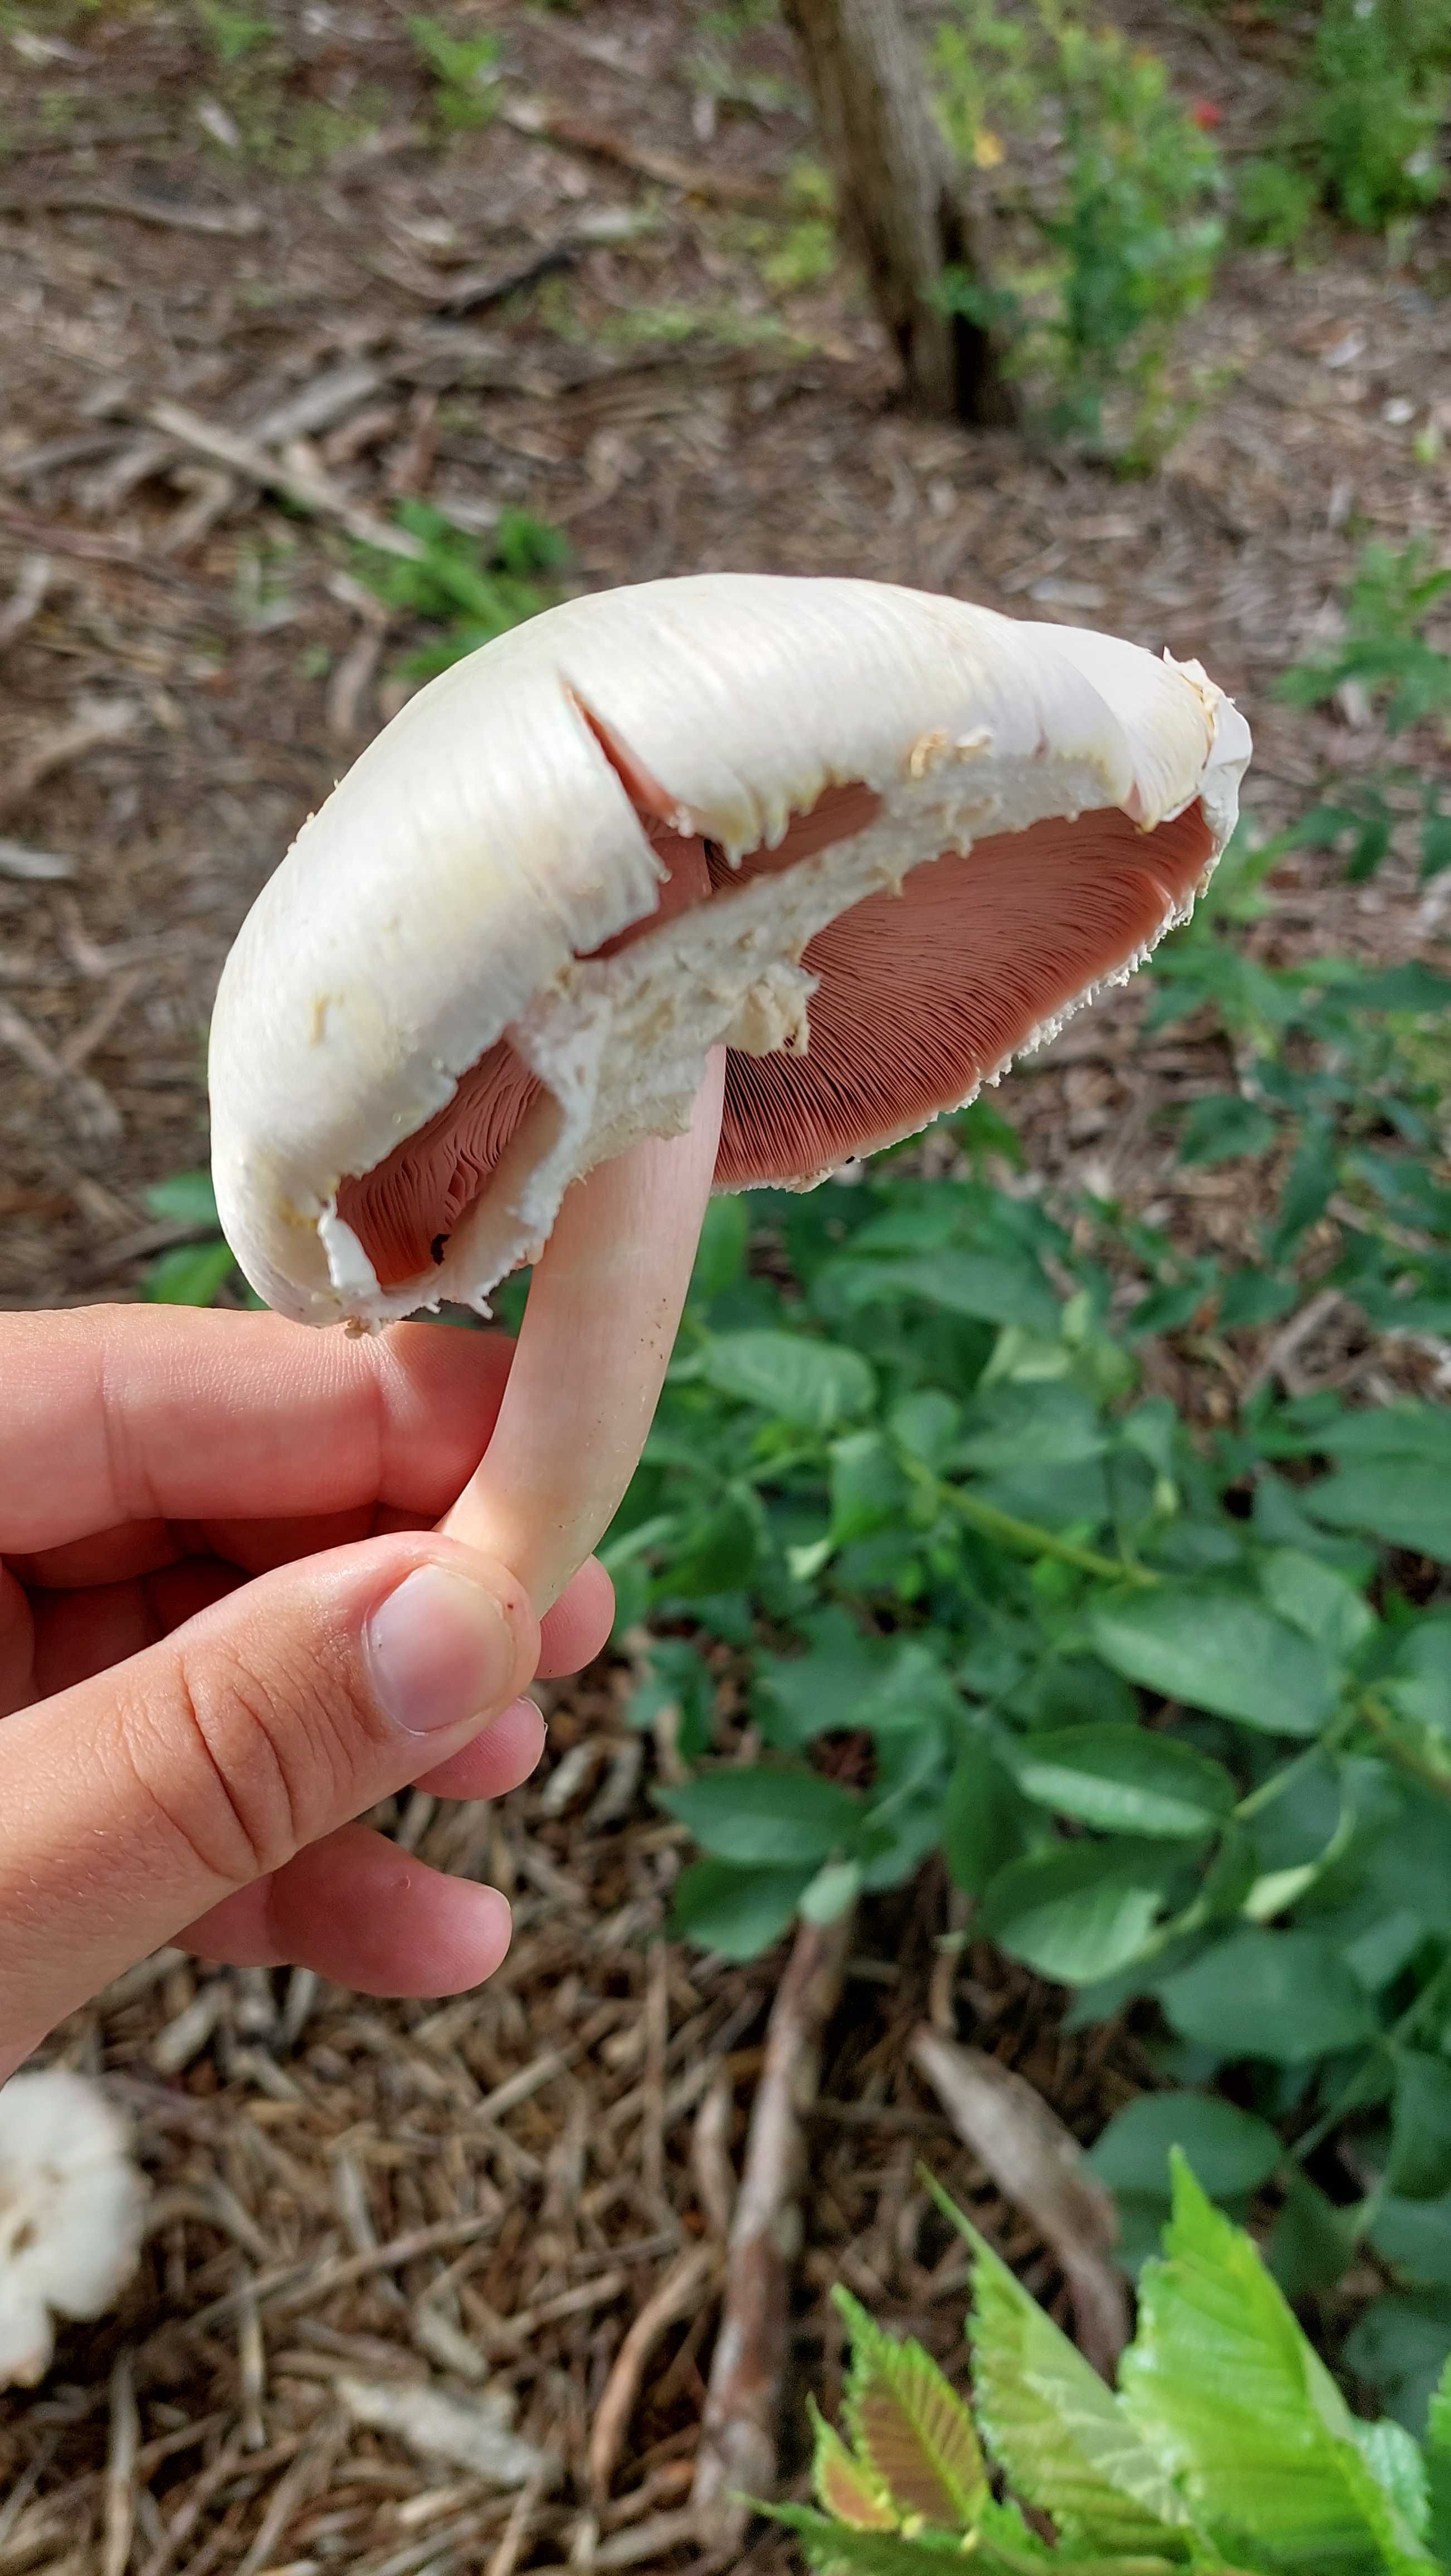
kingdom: Fungi
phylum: Basidiomycota
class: Agaricomycetes
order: Agaricales
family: Agaricaceae
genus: Agaricus
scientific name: Agaricus
